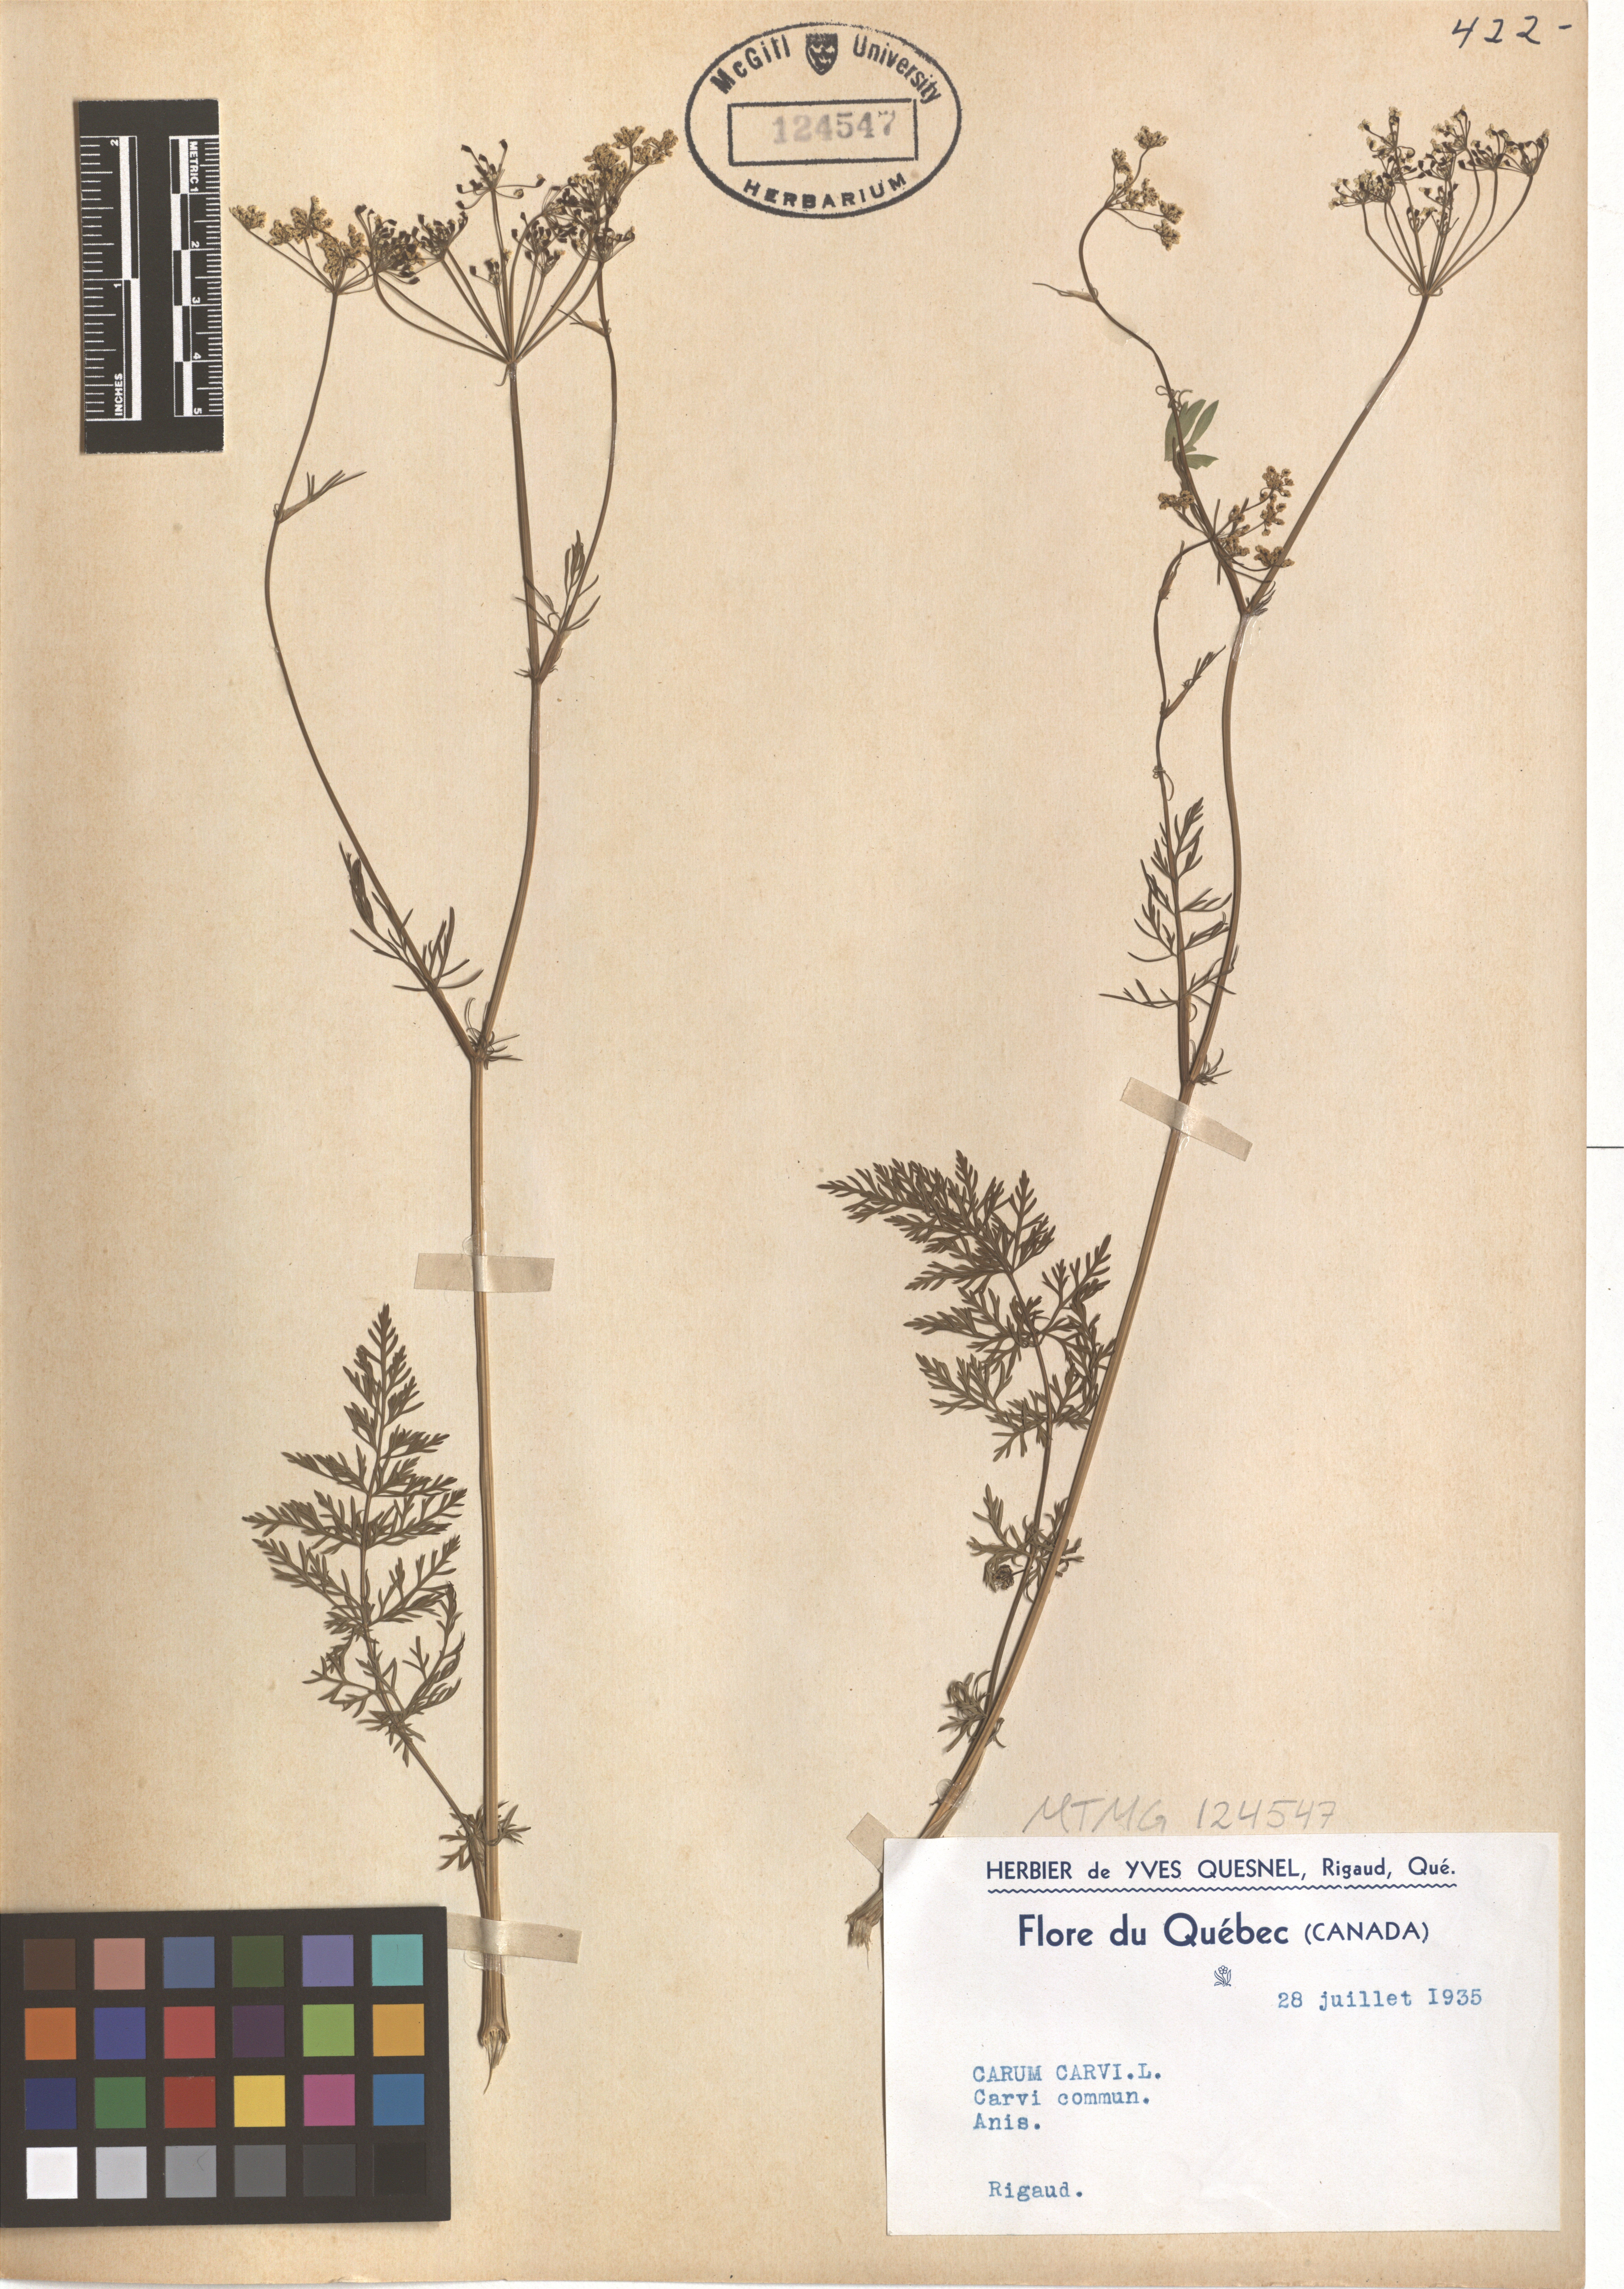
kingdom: Plantae
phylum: Tracheophyta
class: Magnoliopsida
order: Apiales
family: Apiaceae
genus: Carum
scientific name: Carum carvi
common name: Caraway
